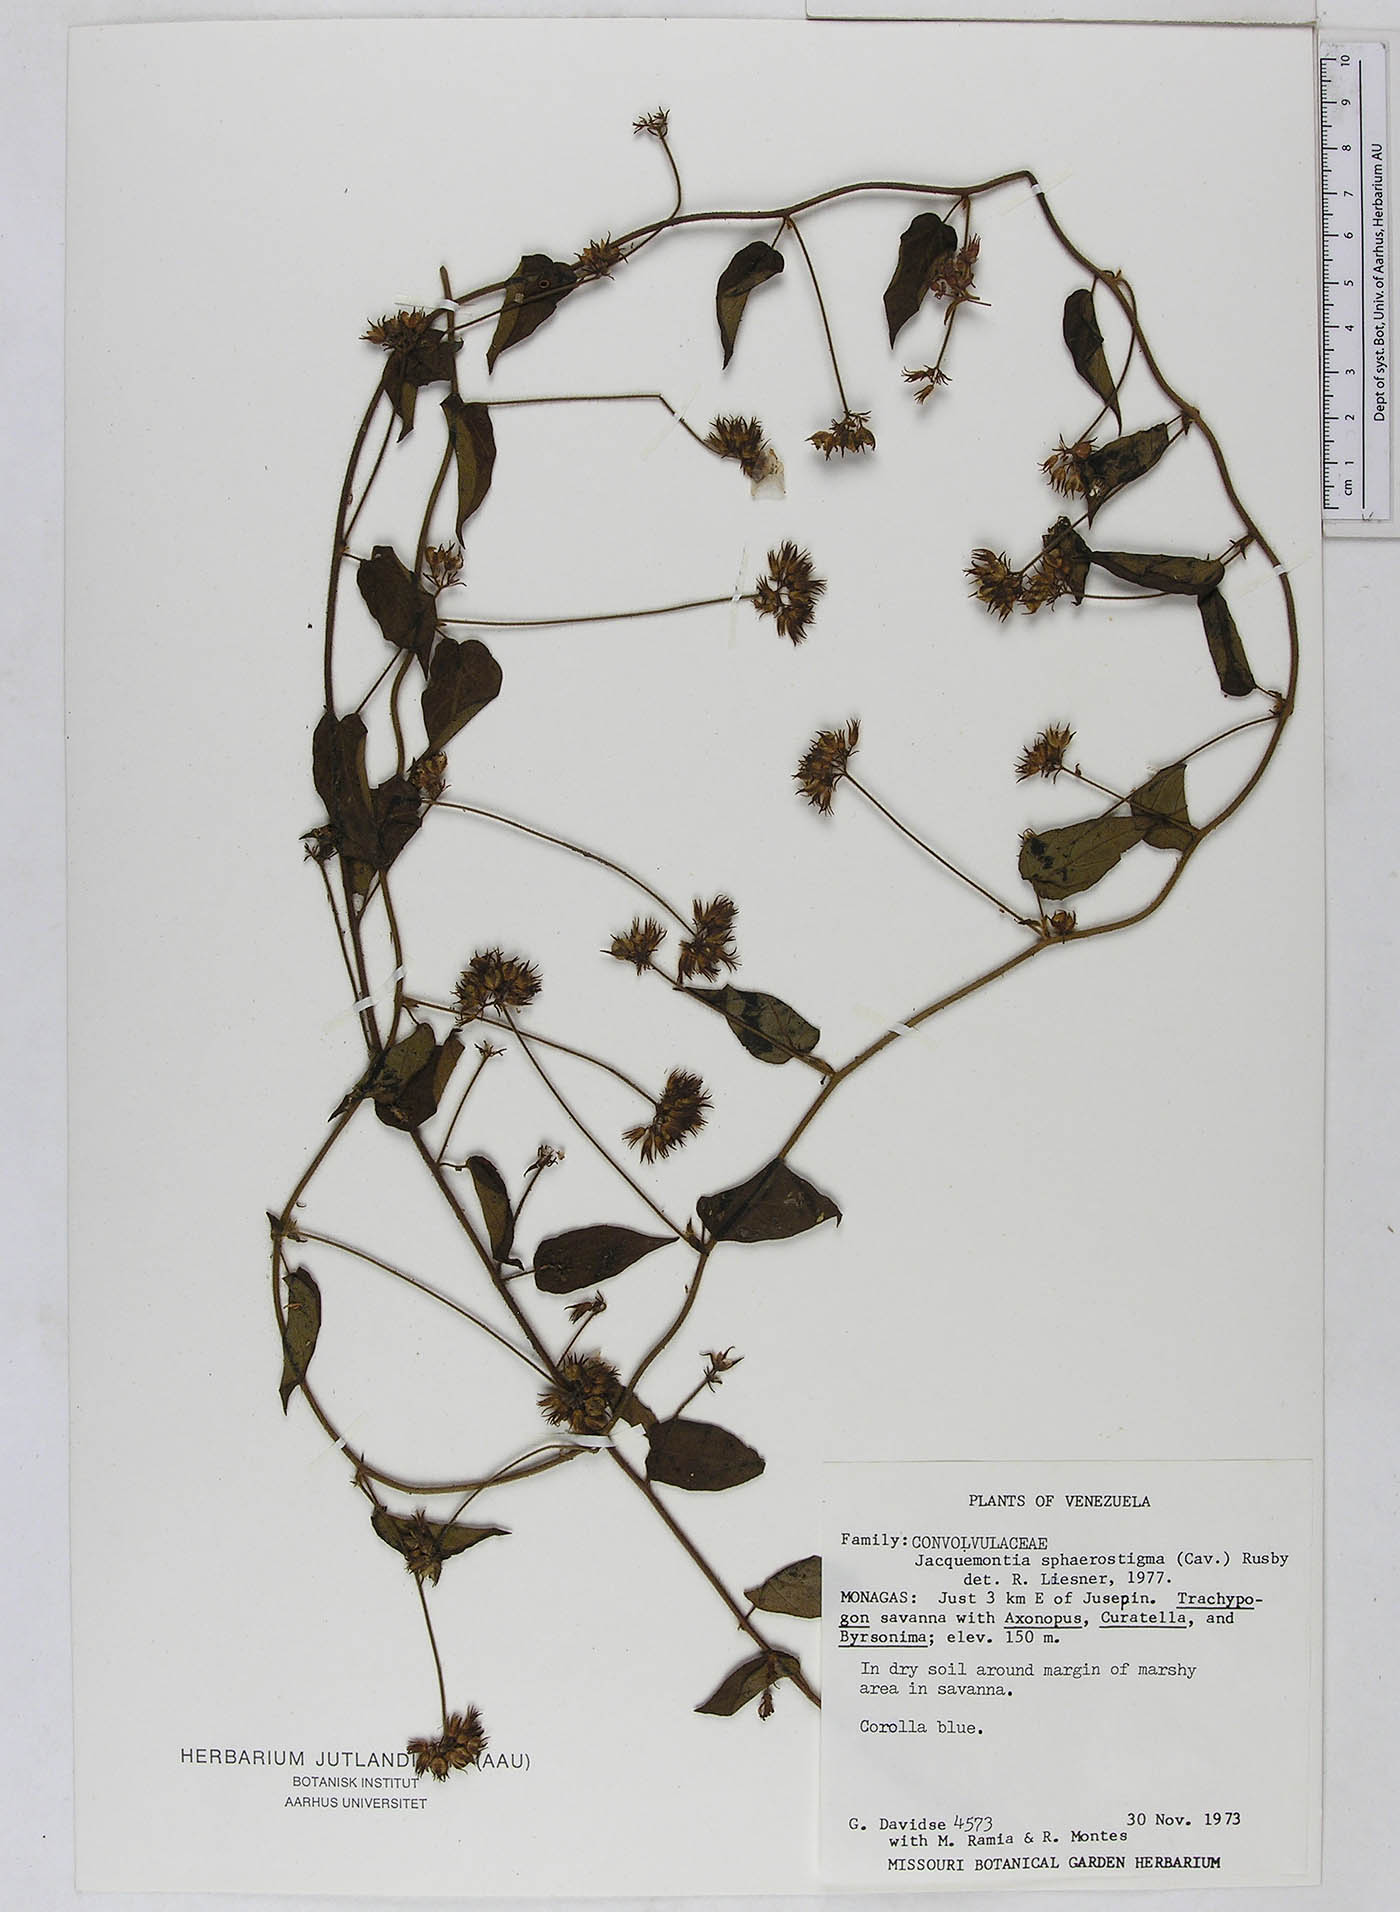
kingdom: Plantae
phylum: Tracheophyta
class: Magnoliopsida
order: Solanales
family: Convolvulaceae
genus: Jacquemontia
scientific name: Jacquemontia sphaerostigma
